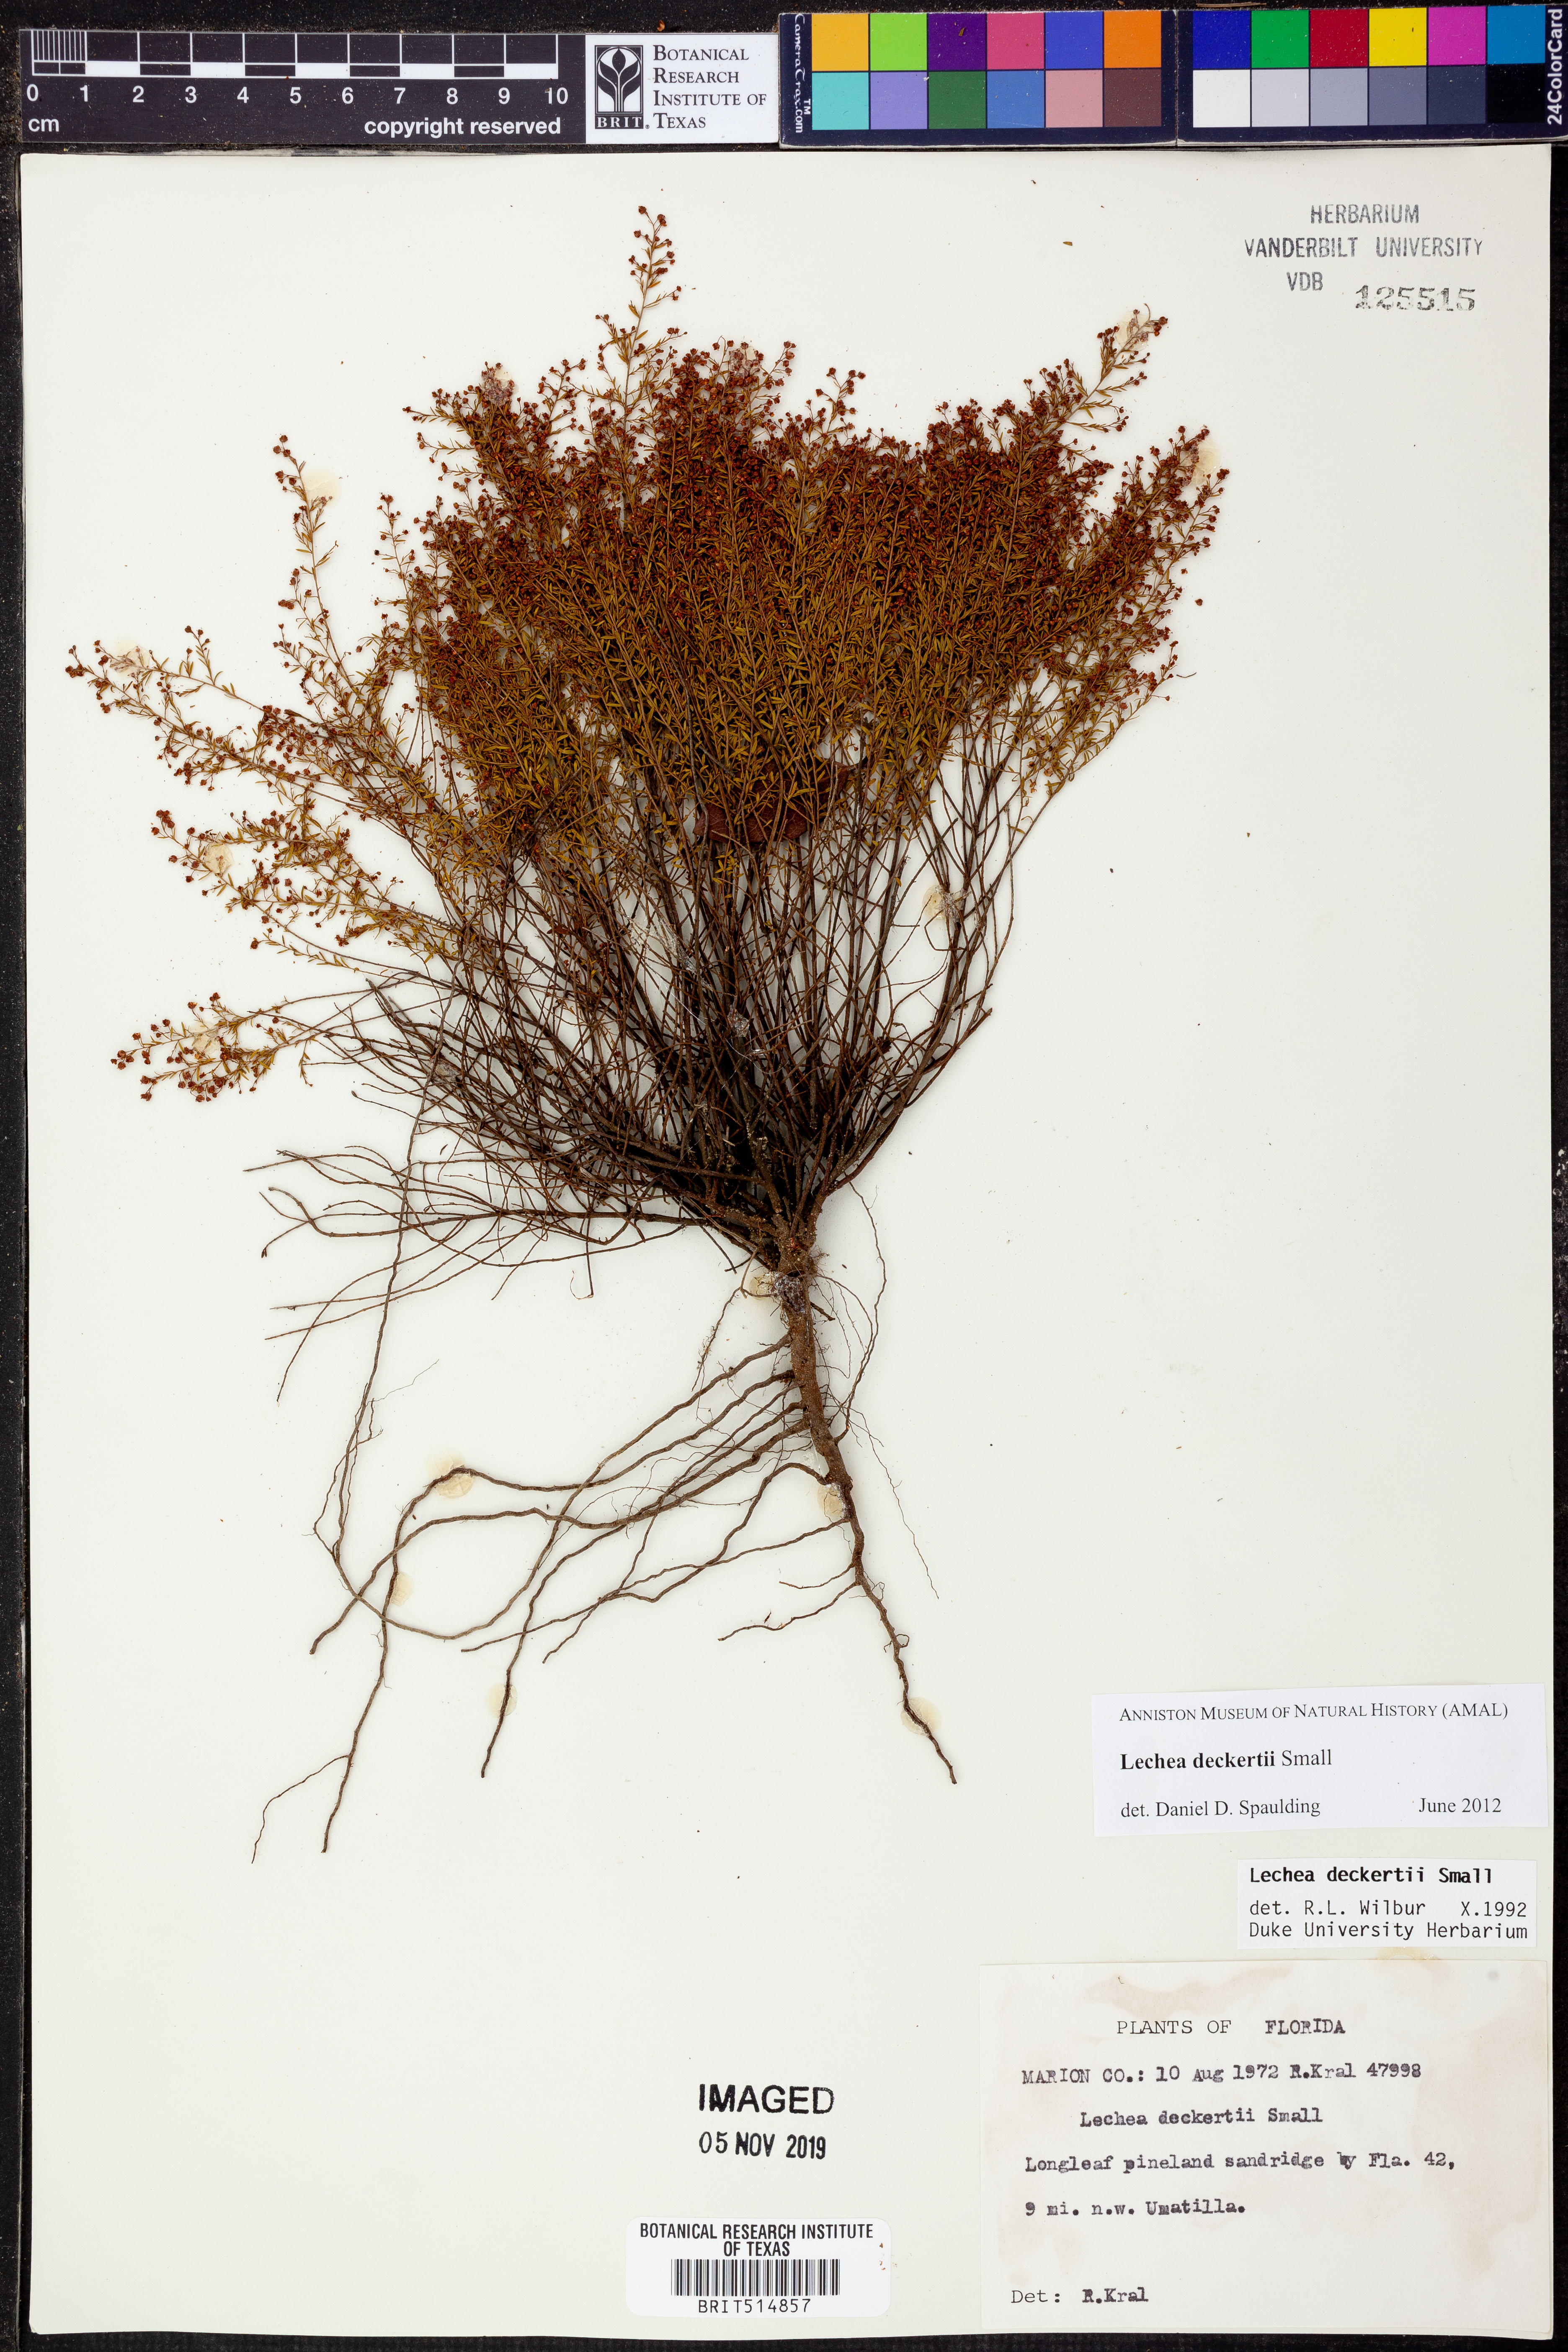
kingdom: Plantae
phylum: Tracheophyta
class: Magnoliopsida
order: Malvales
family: Cistaceae
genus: Lechea
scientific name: Lechea deckertii
